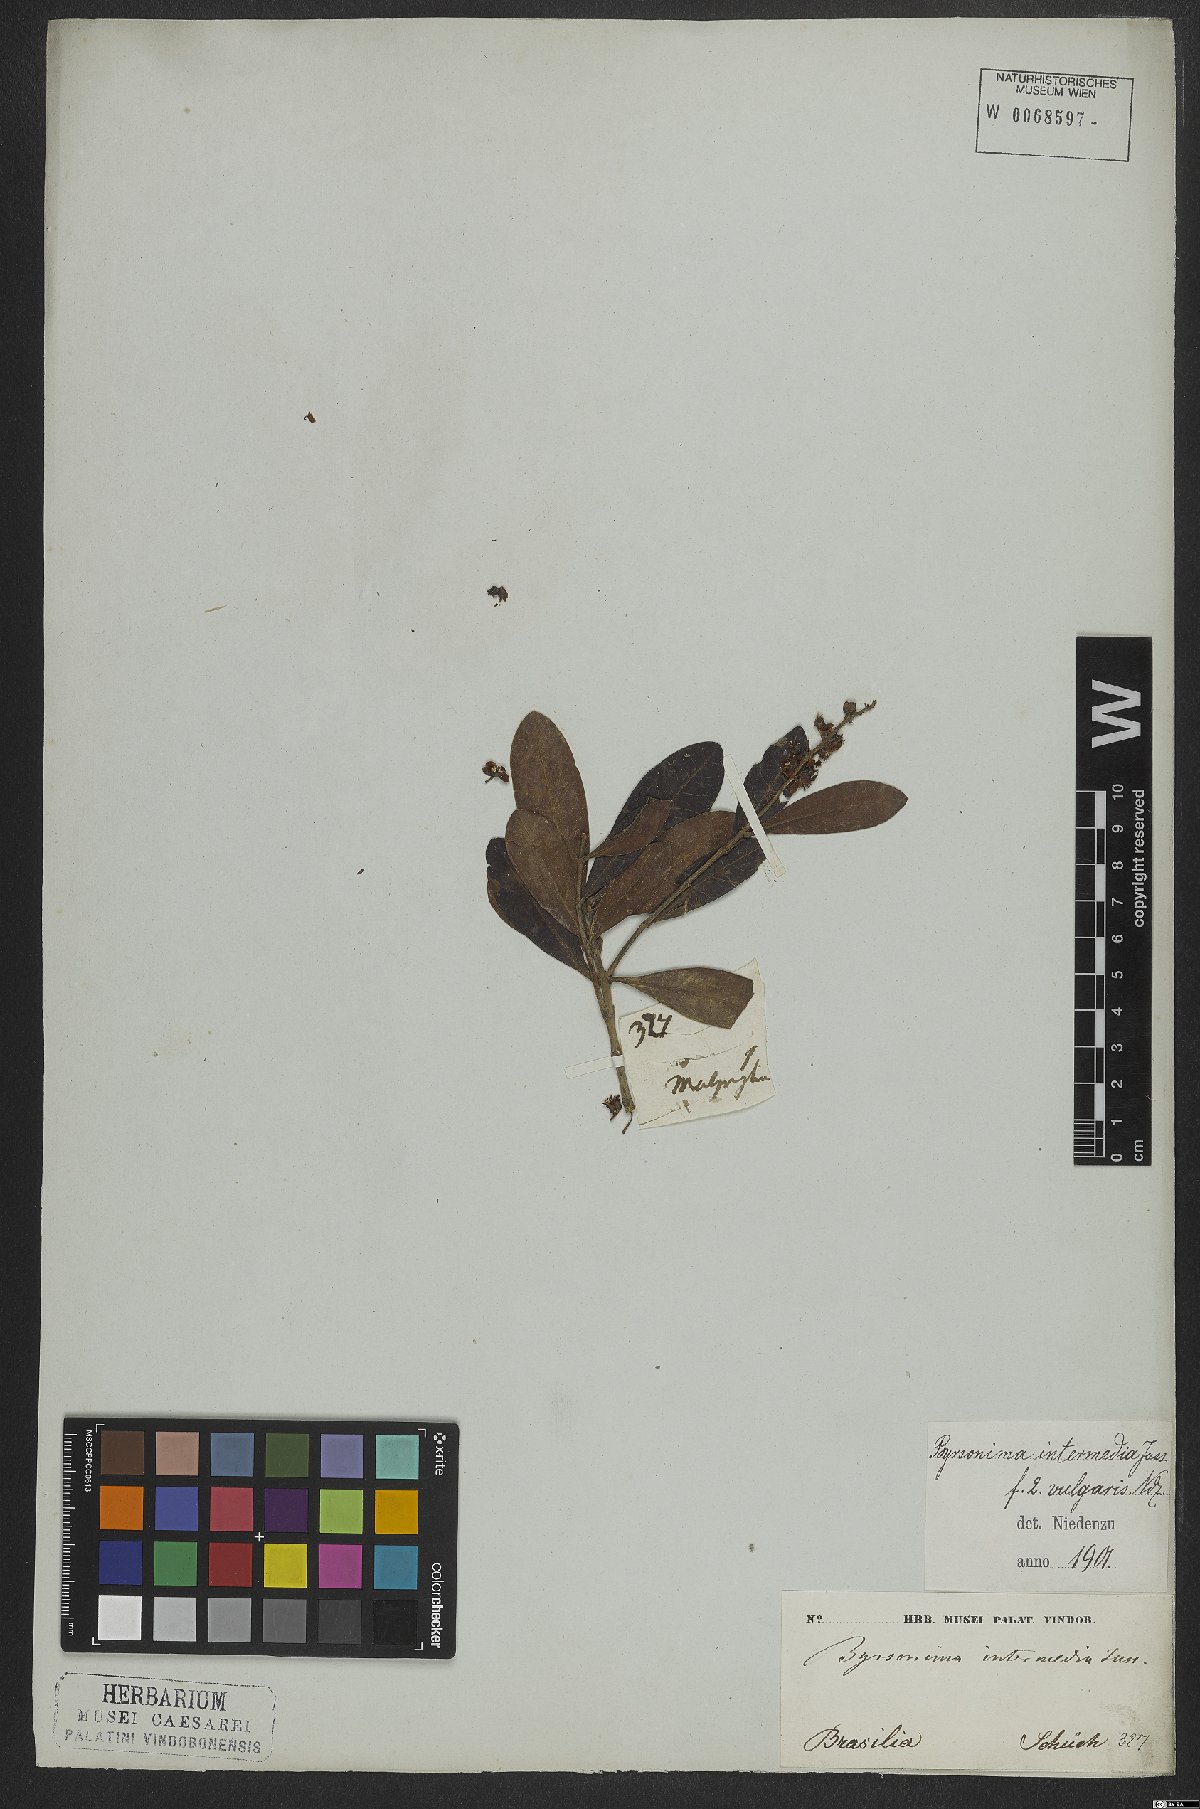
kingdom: Plantae
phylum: Tracheophyta
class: Magnoliopsida
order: Malpighiales
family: Malpighiaceae
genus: Byrsonima
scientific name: Byrsonima intermedia
